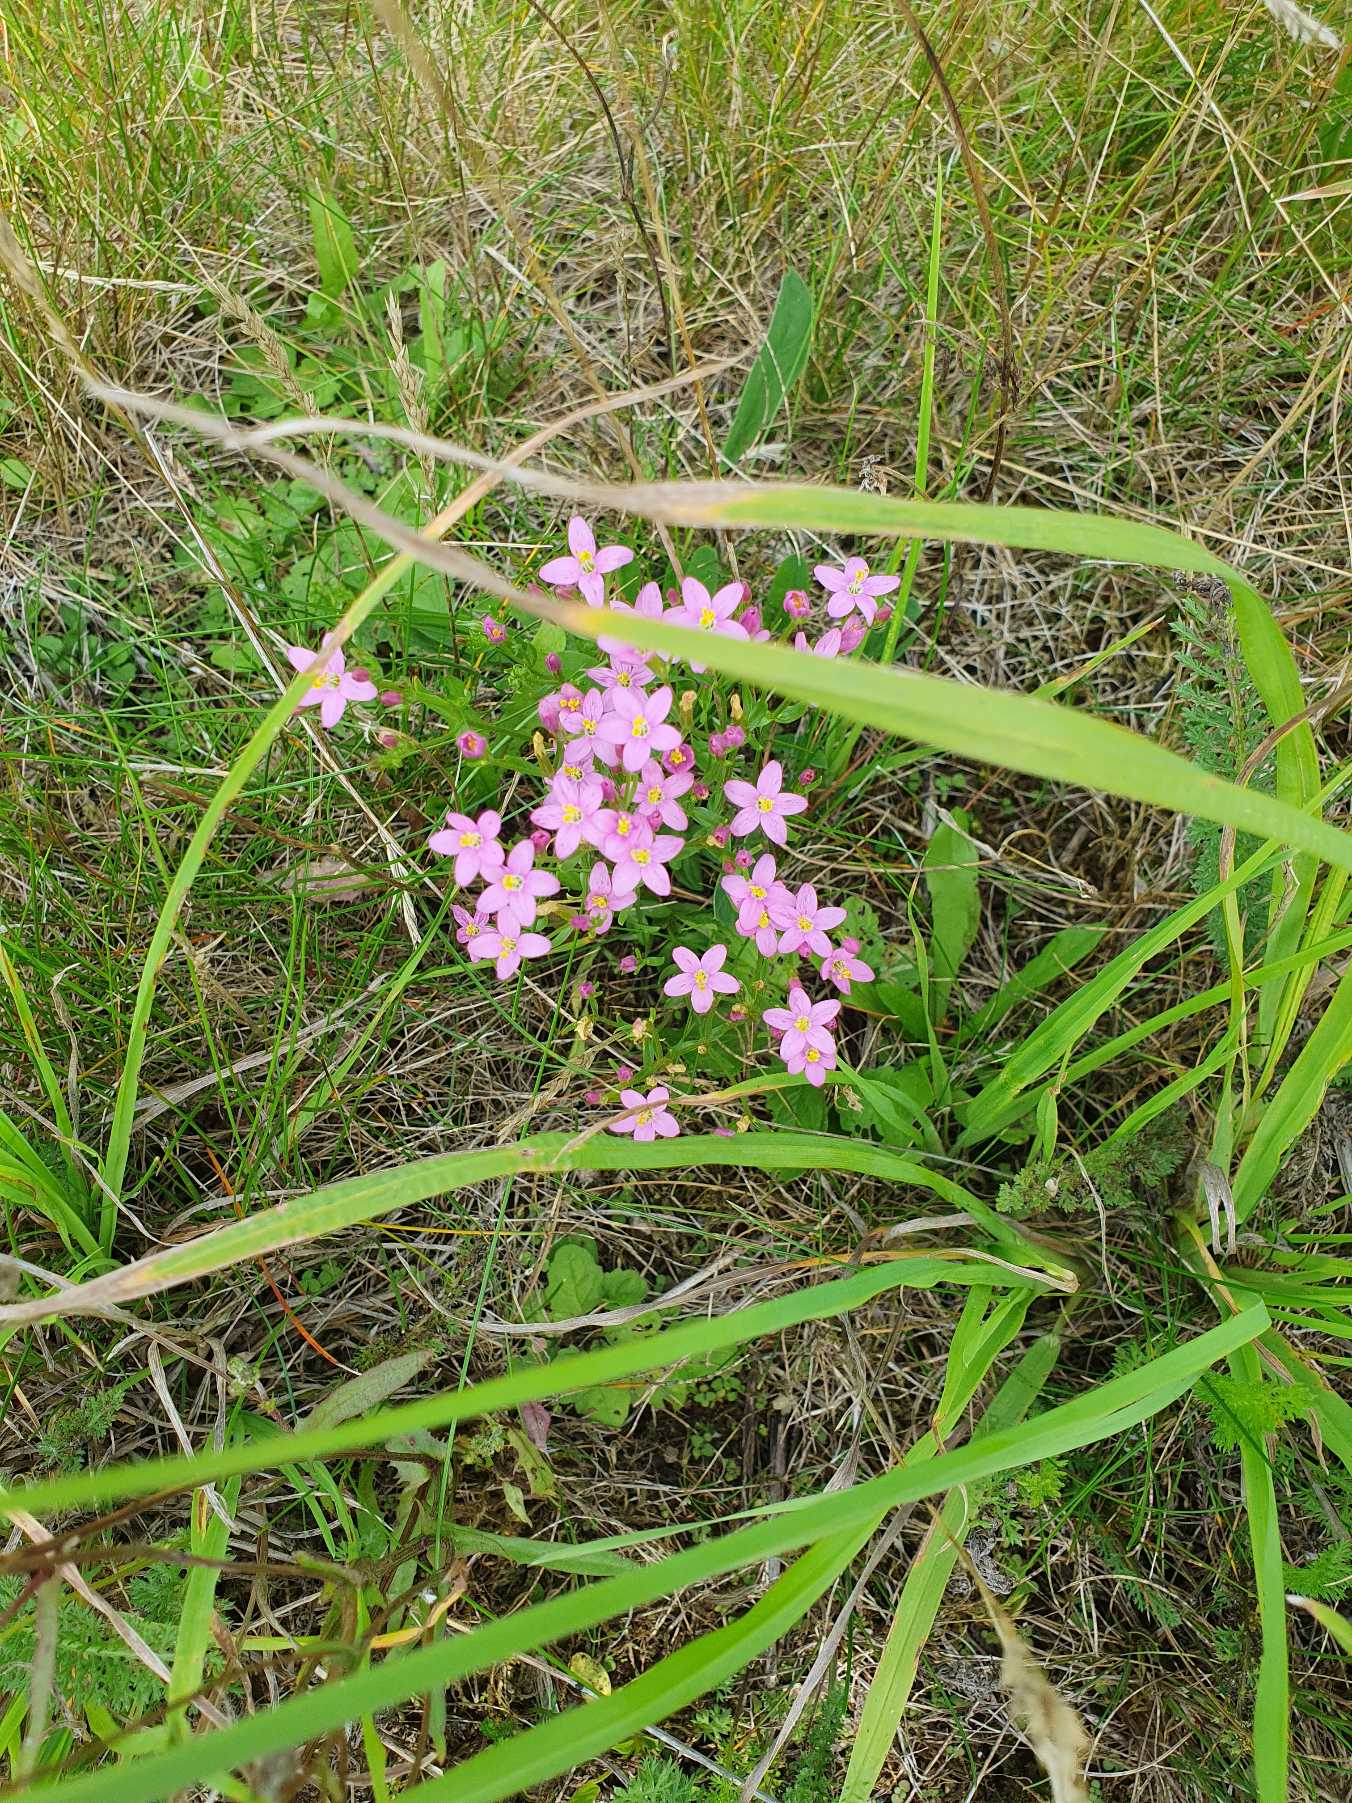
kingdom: Plantae
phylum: Tracheophyta
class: Magnoliopsida
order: Gentianales
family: Gentianaceae
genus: Centaurium
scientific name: Centaurium erythraea
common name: Mark-tusindgylden
